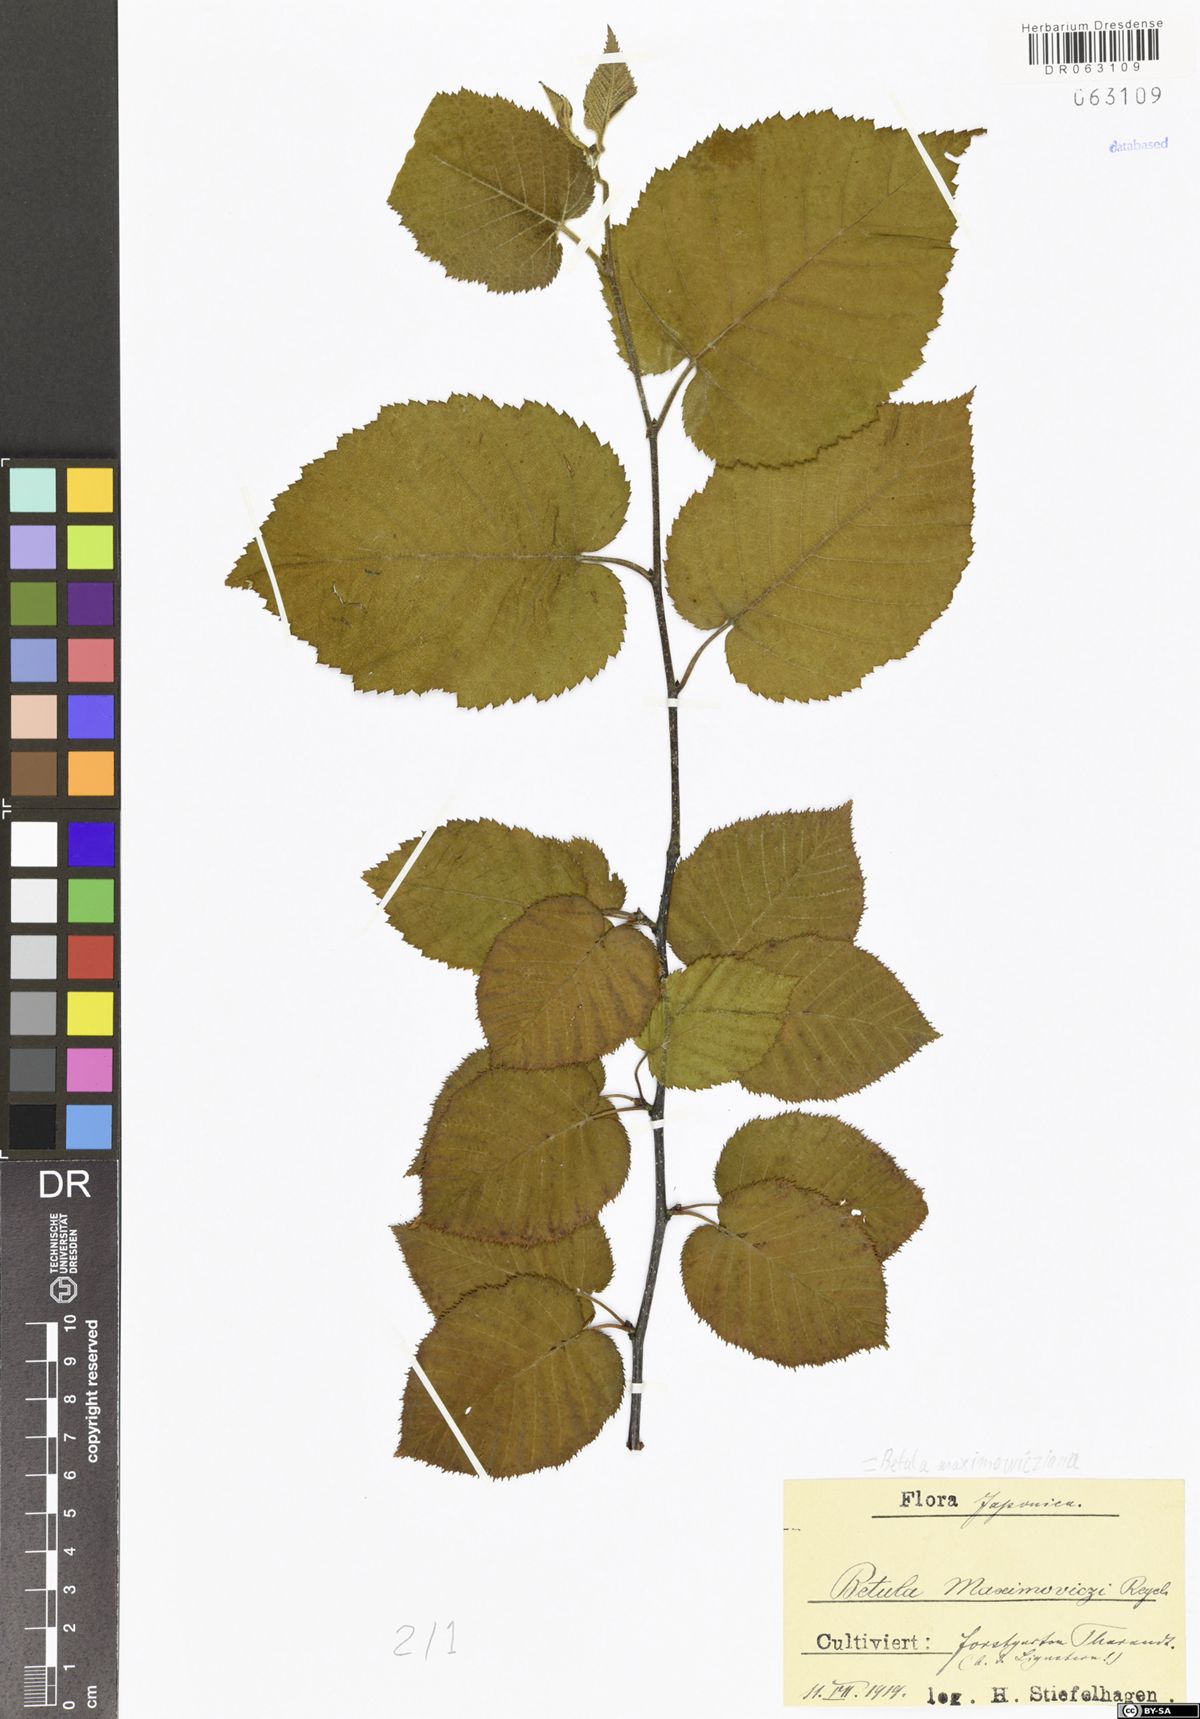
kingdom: Plantae
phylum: Tracheophyta
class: Magnoliopsida
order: Fagales
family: Betulaceae
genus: Betula
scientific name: Betula maximowicziana
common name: Monarch birch
